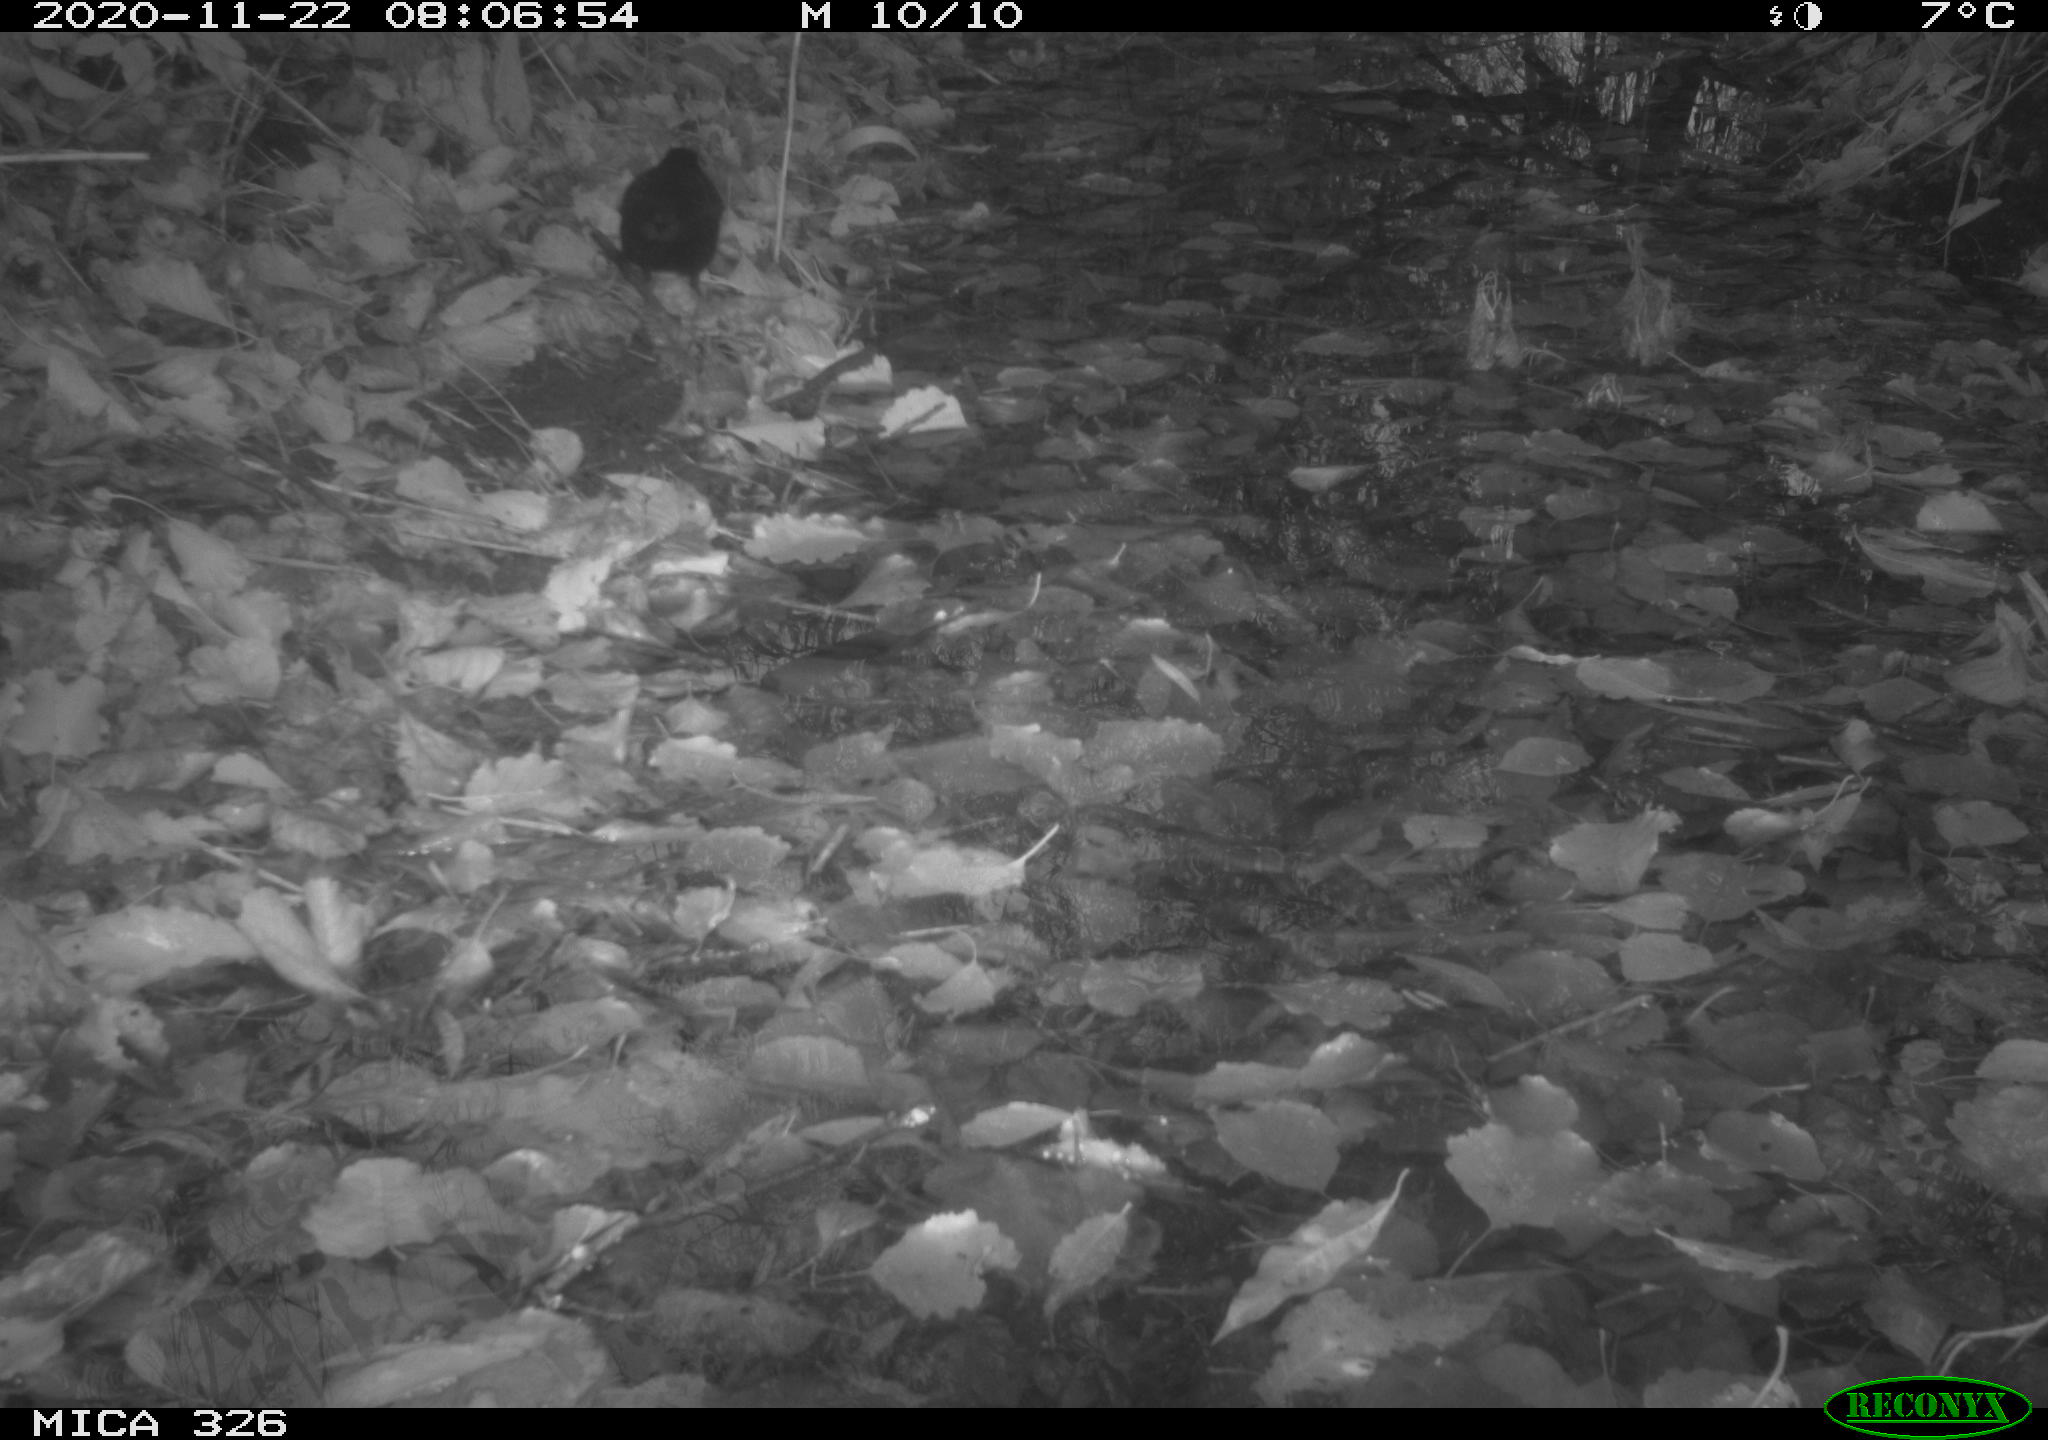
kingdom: Animalia
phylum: Chordata
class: Aves
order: Passeriformes
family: Turdidae
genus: Turdus
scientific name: Turdus merula
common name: Common blackbird
